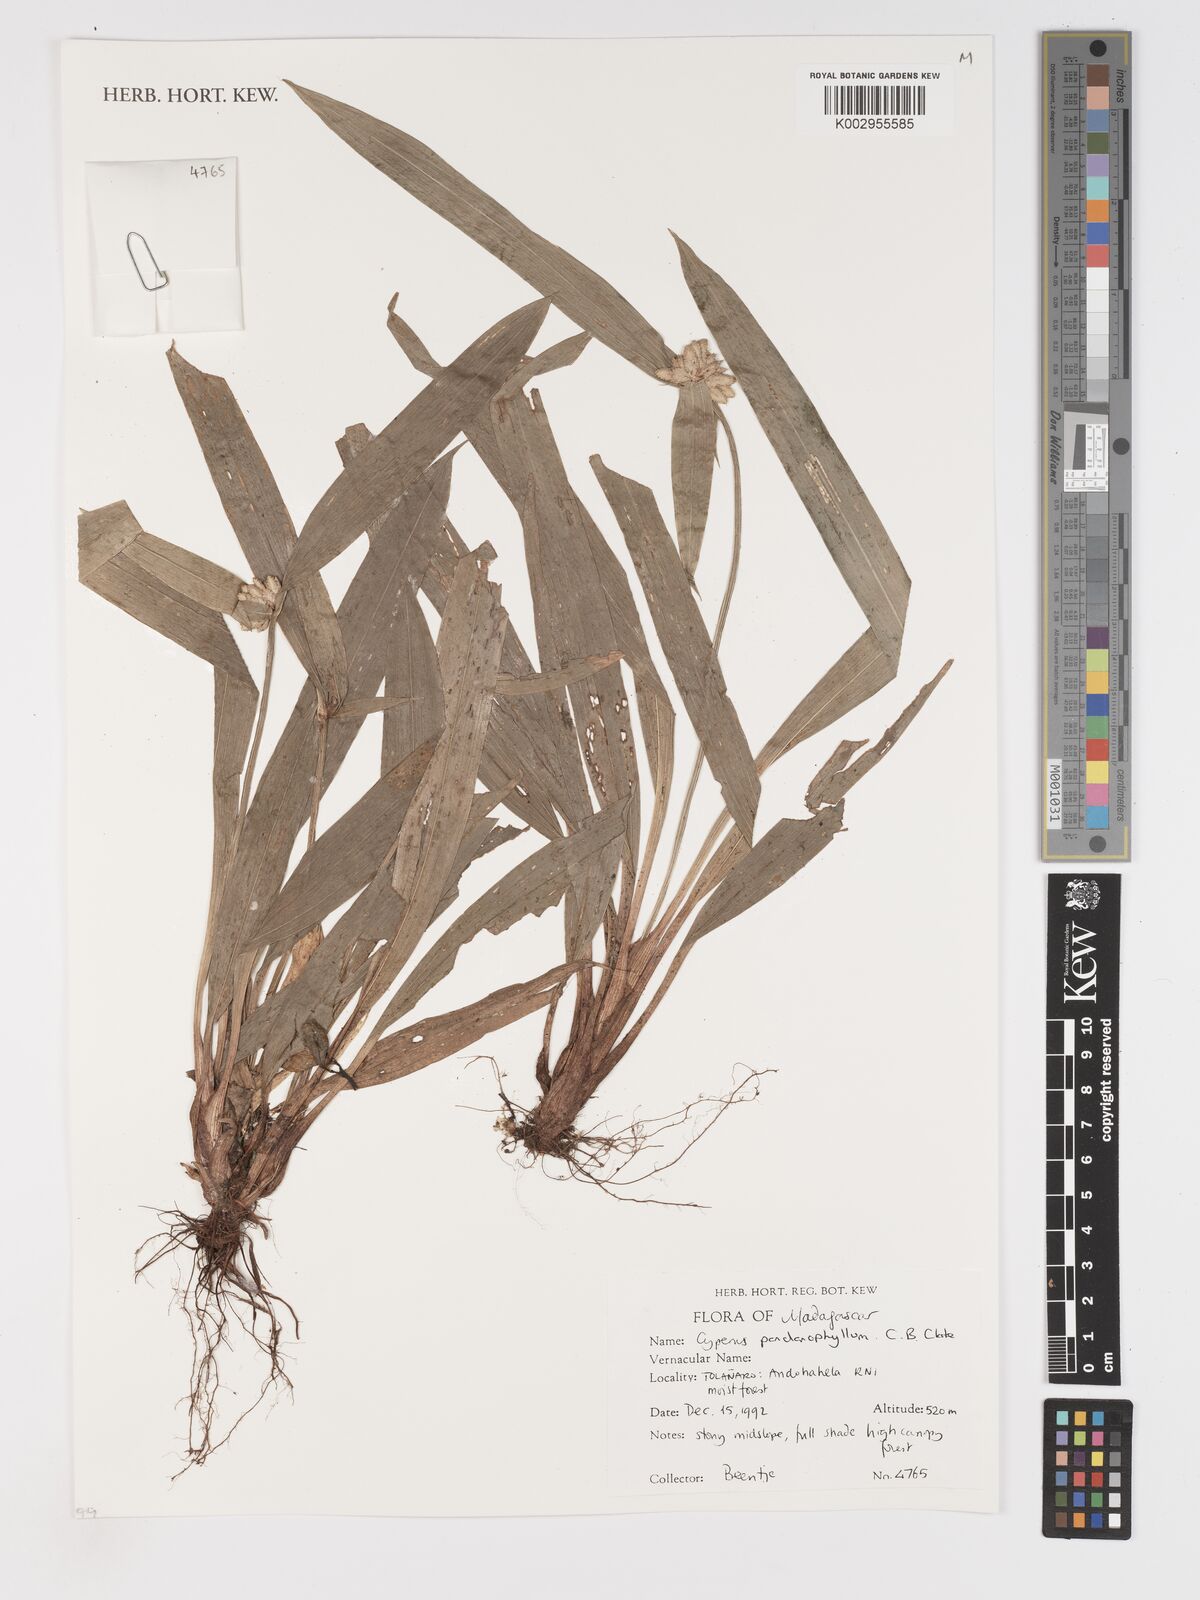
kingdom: Plantae
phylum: Tracheophyta
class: Liliopsida
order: Poales
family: Cyperaceae
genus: Cyperus
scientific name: Cyperus pandanophyllum
